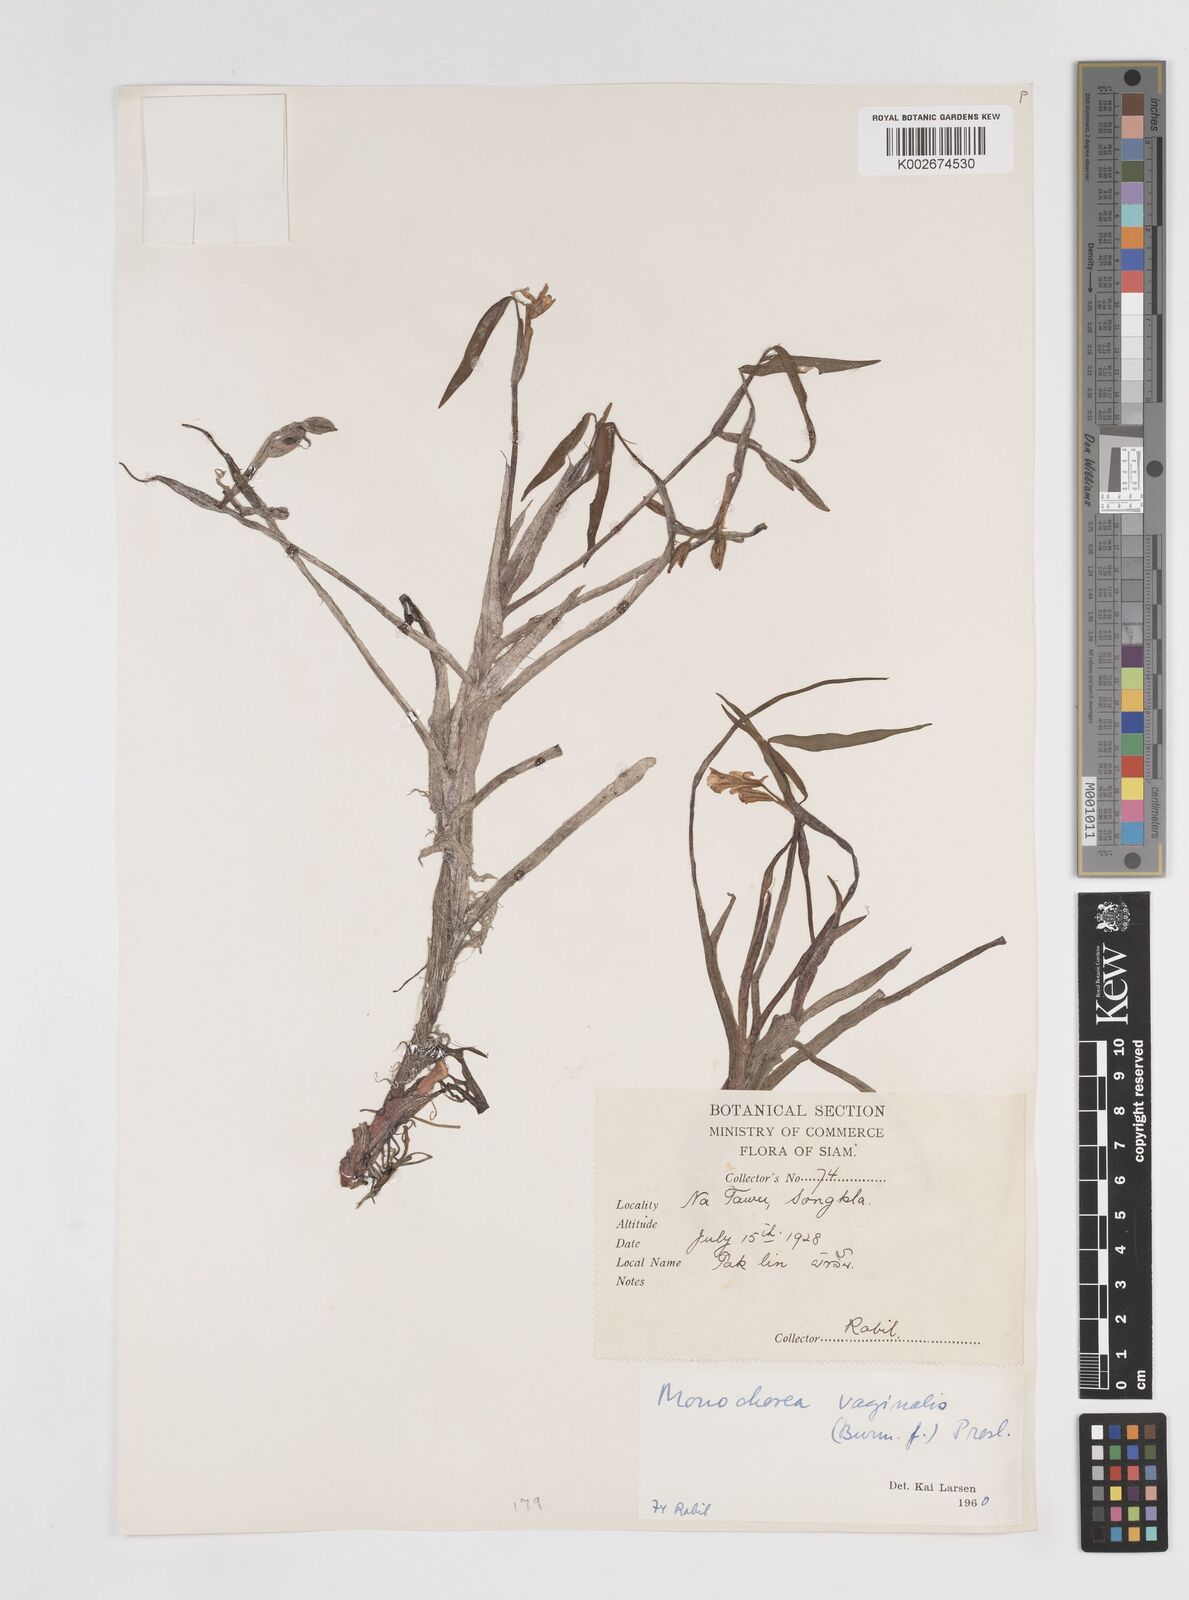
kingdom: Plantae
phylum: Tracheophyta
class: Liliopsida
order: Commelinales
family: Pontederiaceae
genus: Pontederia
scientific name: Pontederia vaginalis
